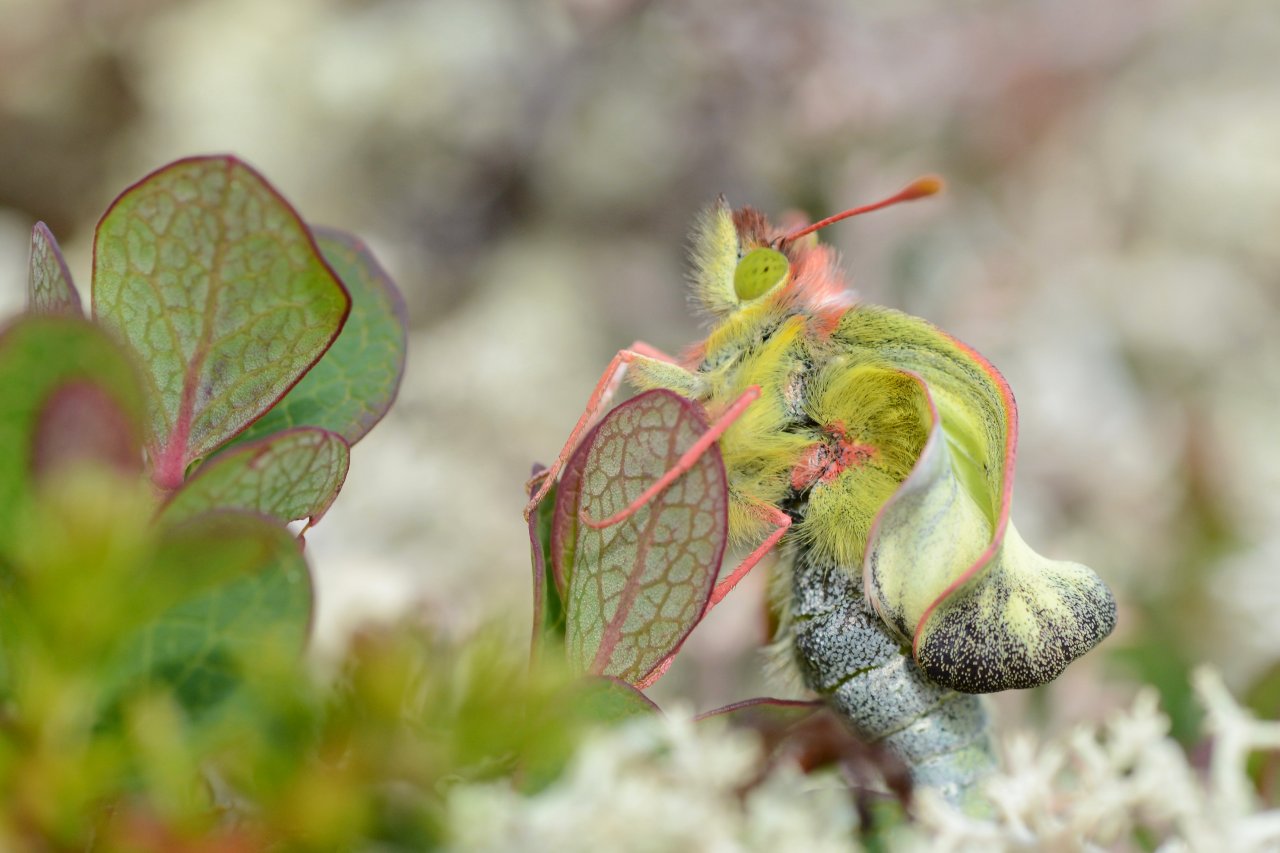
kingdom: Animalia
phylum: Arthropoda
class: Insecta
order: Lepidoptera
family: Pieridae
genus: Colias
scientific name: Colias pelidne
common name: Pelidne Sulphur
